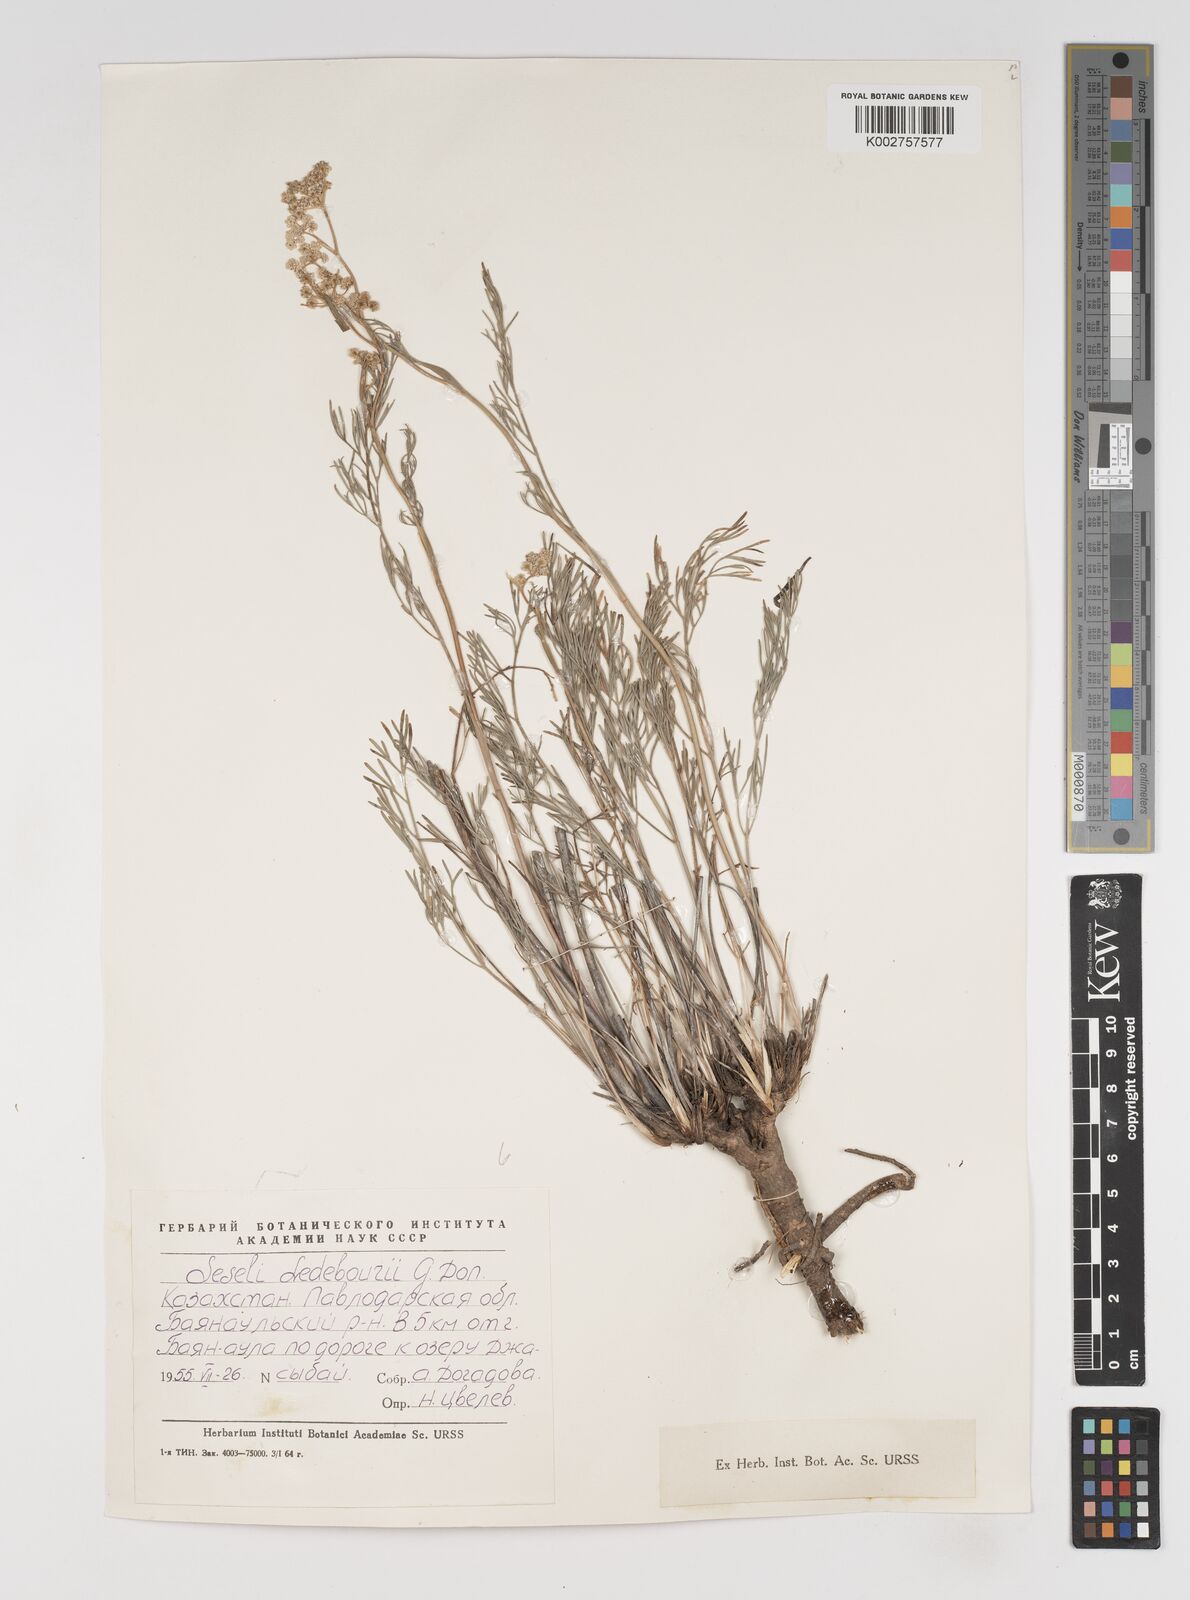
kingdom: Plantae
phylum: Tracheophyta
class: Magnoliopsida
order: Apiales
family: Apiaceae
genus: Hippomarathrum
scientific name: Hippomarathrum ledebourii
